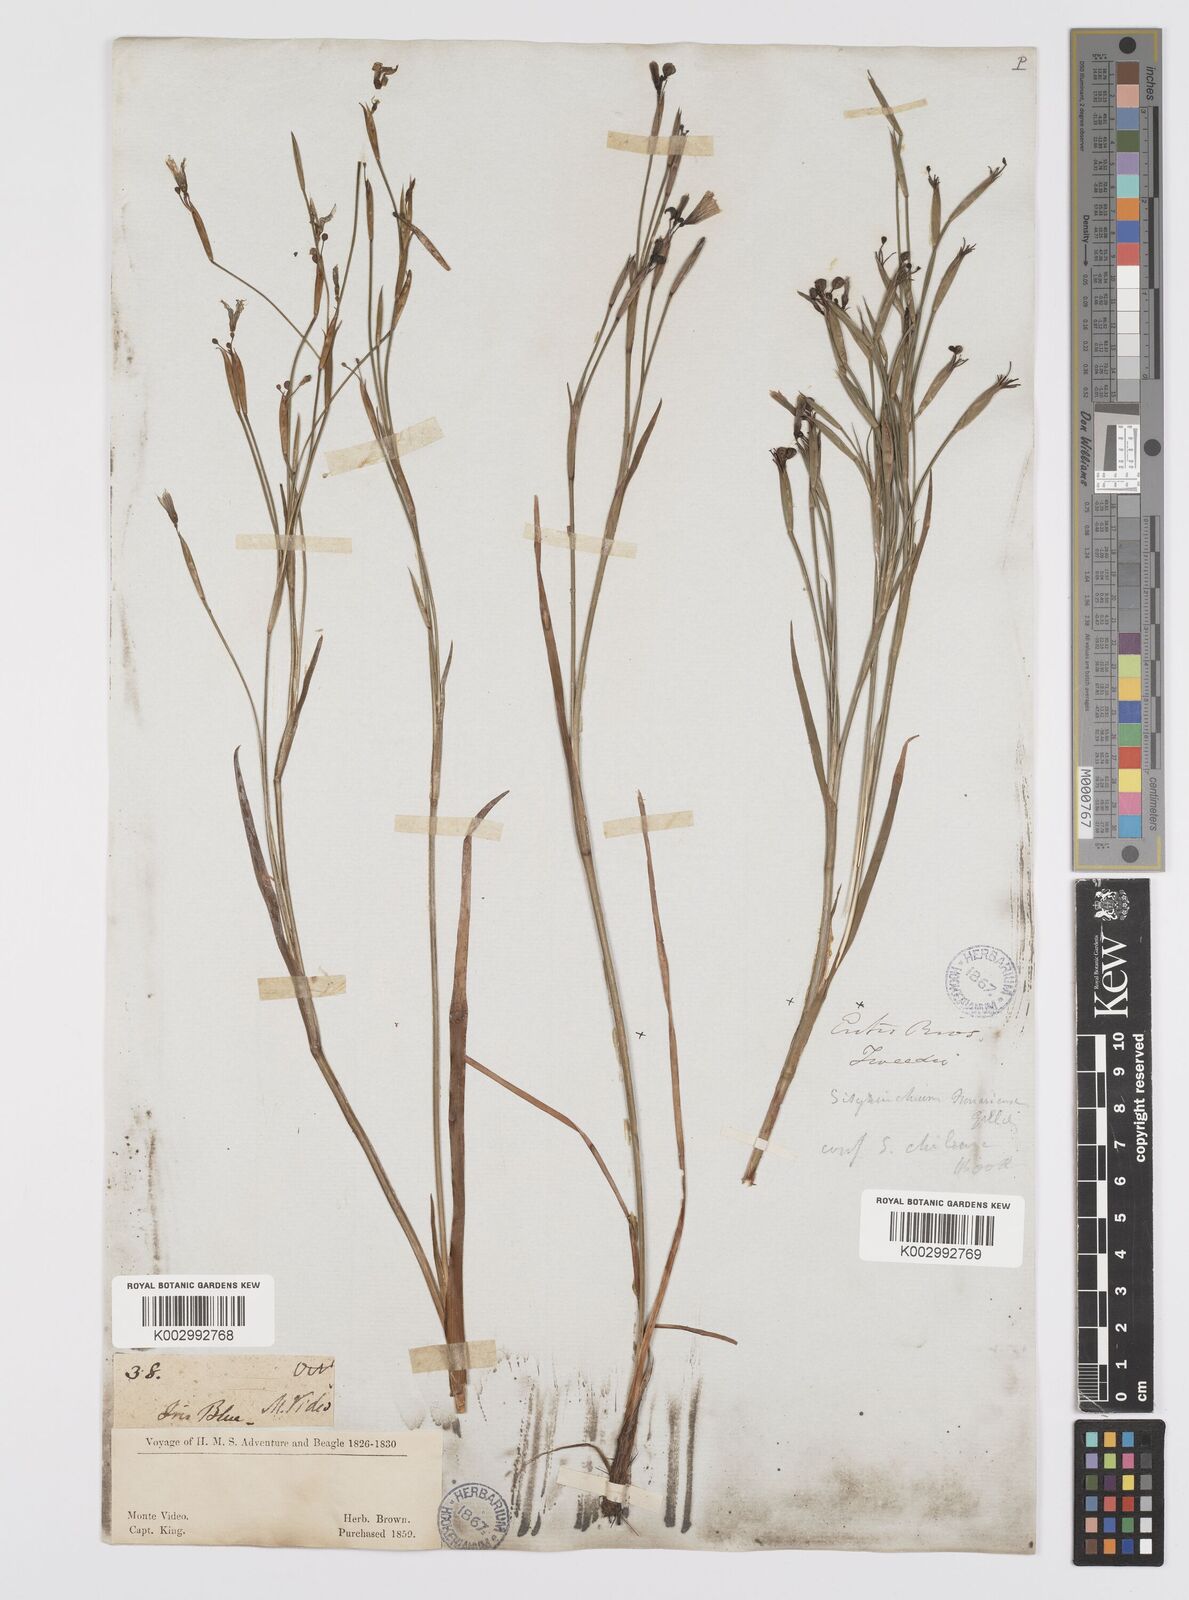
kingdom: Plantae
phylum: Tracheophyta
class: Liliopsida
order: Asparagales
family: Iridaceae
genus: Sisyrinchium
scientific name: Sisyrinchium chilense
